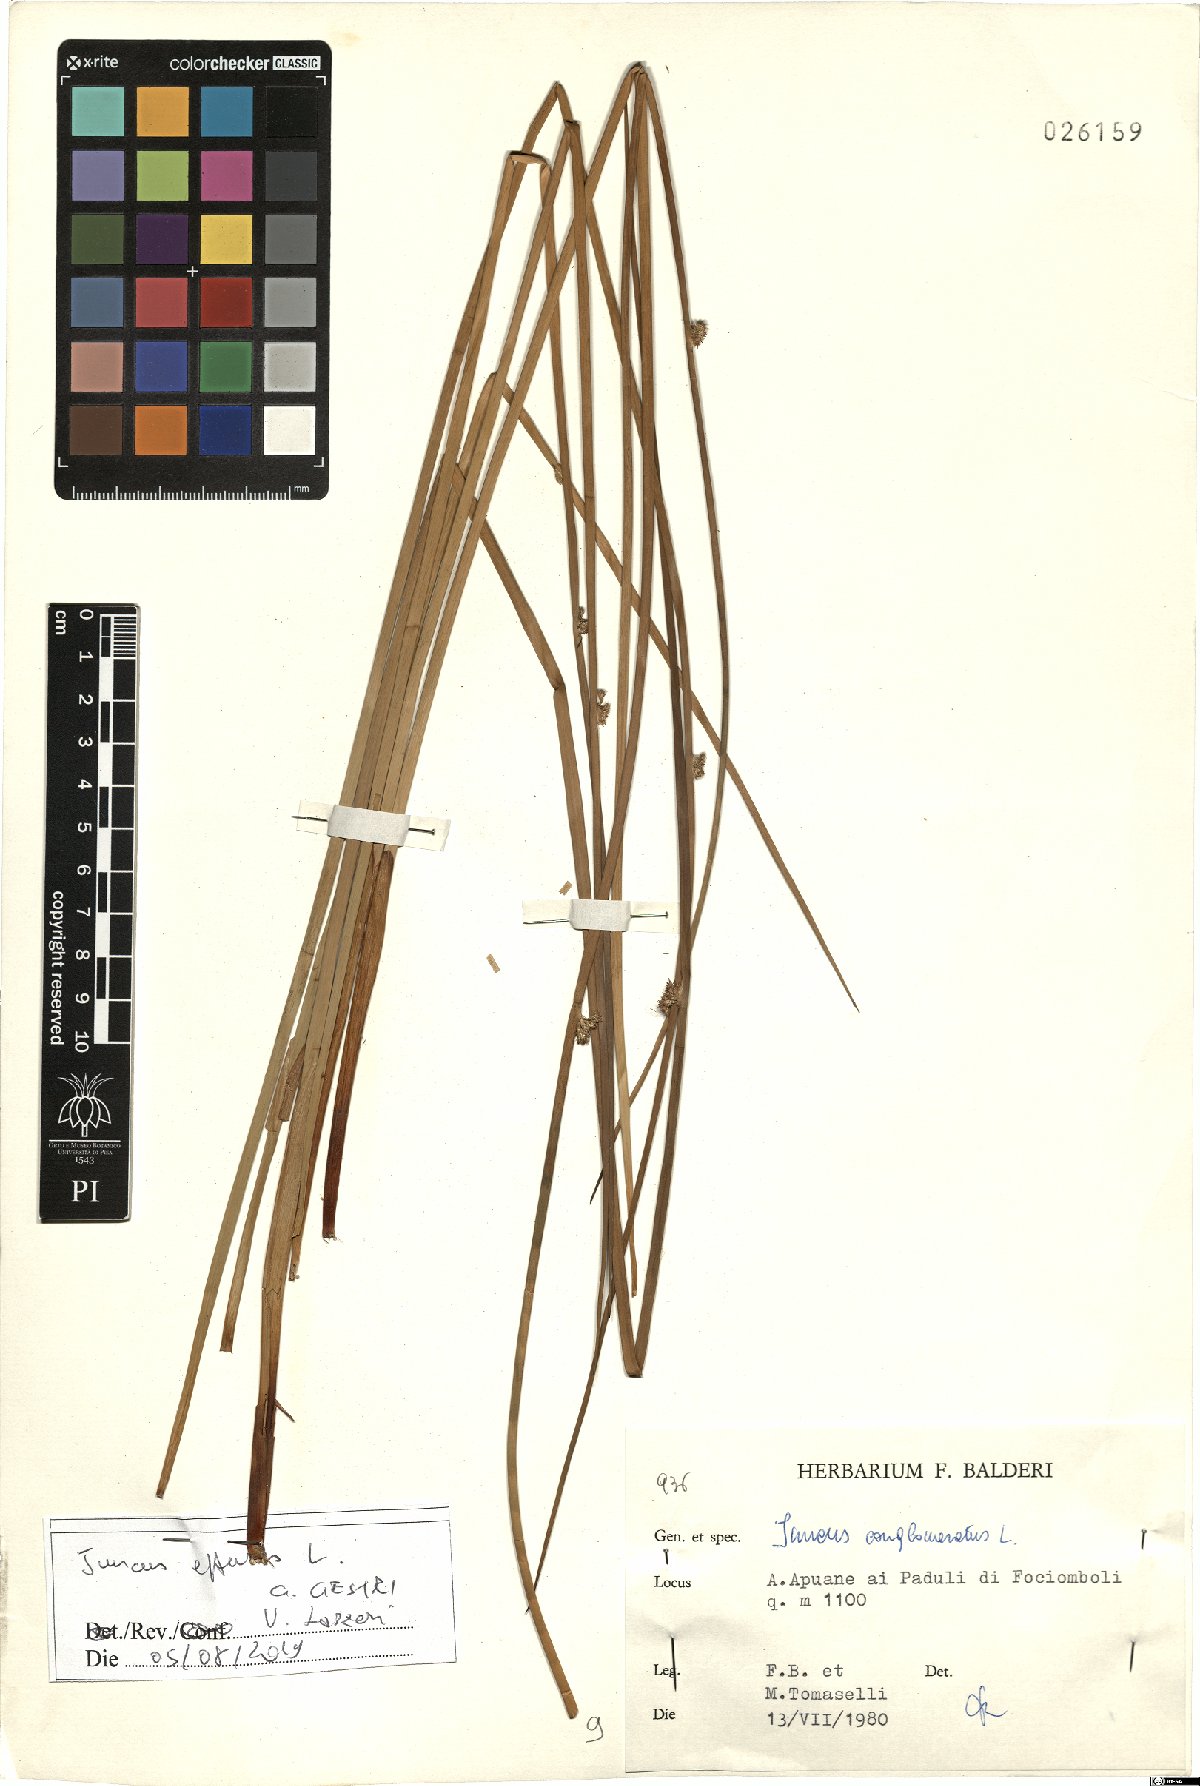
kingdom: Plantae
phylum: Tracheophyta
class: Liliopsida
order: Poales
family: Juncaceae
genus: Juncus
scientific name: Juncus effusus
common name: Soft rush
